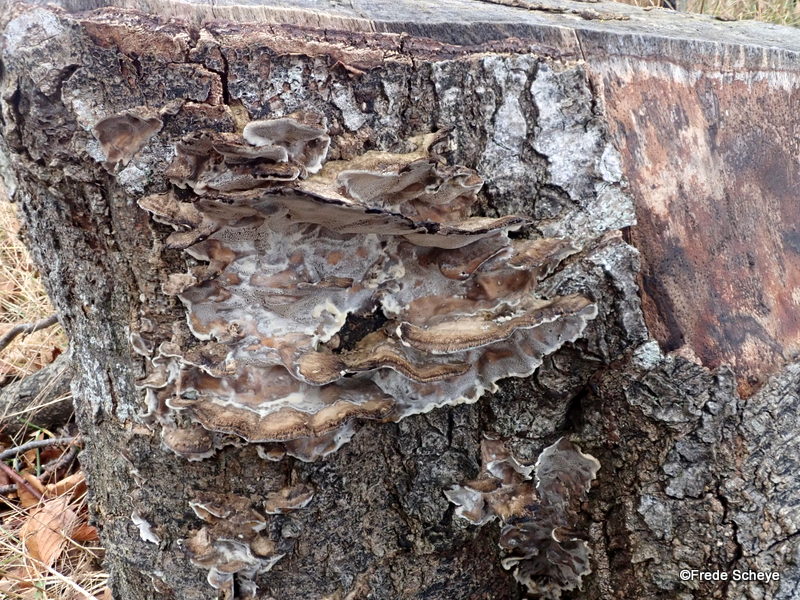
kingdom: Fungi
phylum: Basidiomycota
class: Agaricomycetes
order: Polyporales
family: Phanerochaetaceae
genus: Bjerkandera
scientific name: Bjerkandera adusta
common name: sveden sodporesvamp
